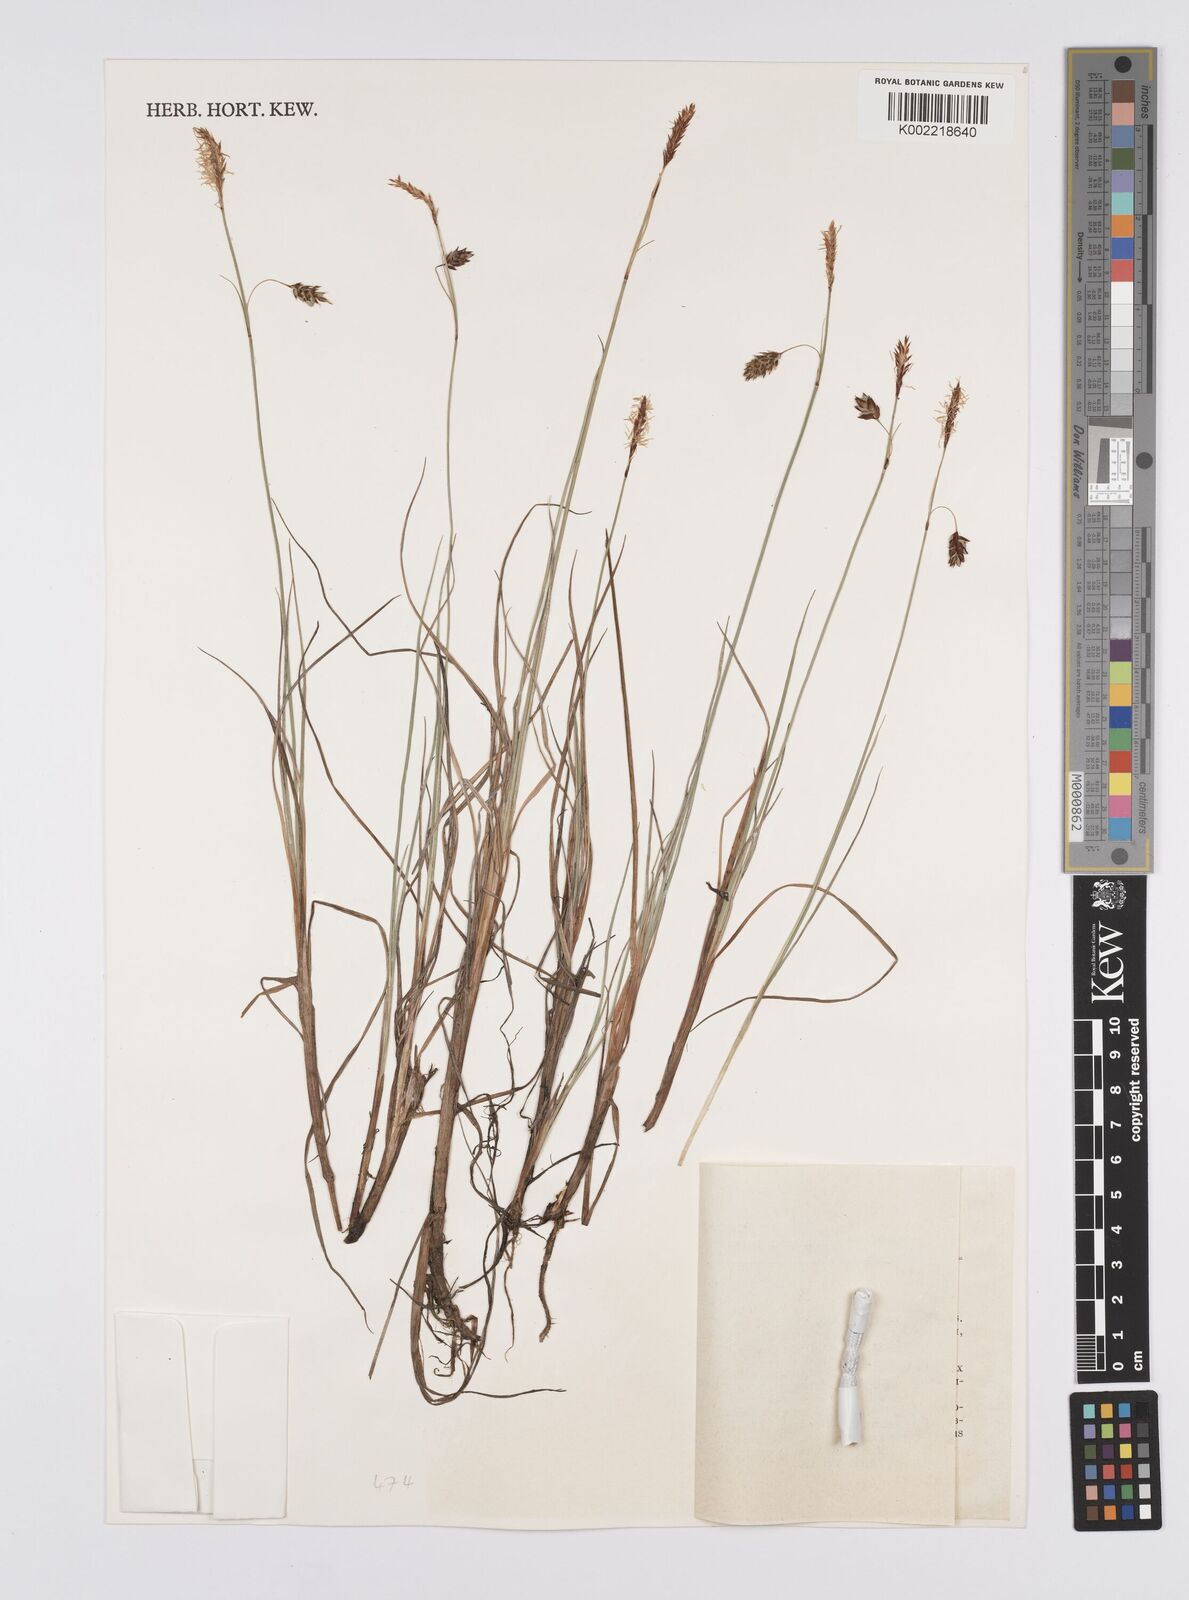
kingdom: Plantae
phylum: Tracheophyta
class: Liliopsida
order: Poales
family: Cyperaceae
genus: Carex
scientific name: Carex limosa
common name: Bog sedge
